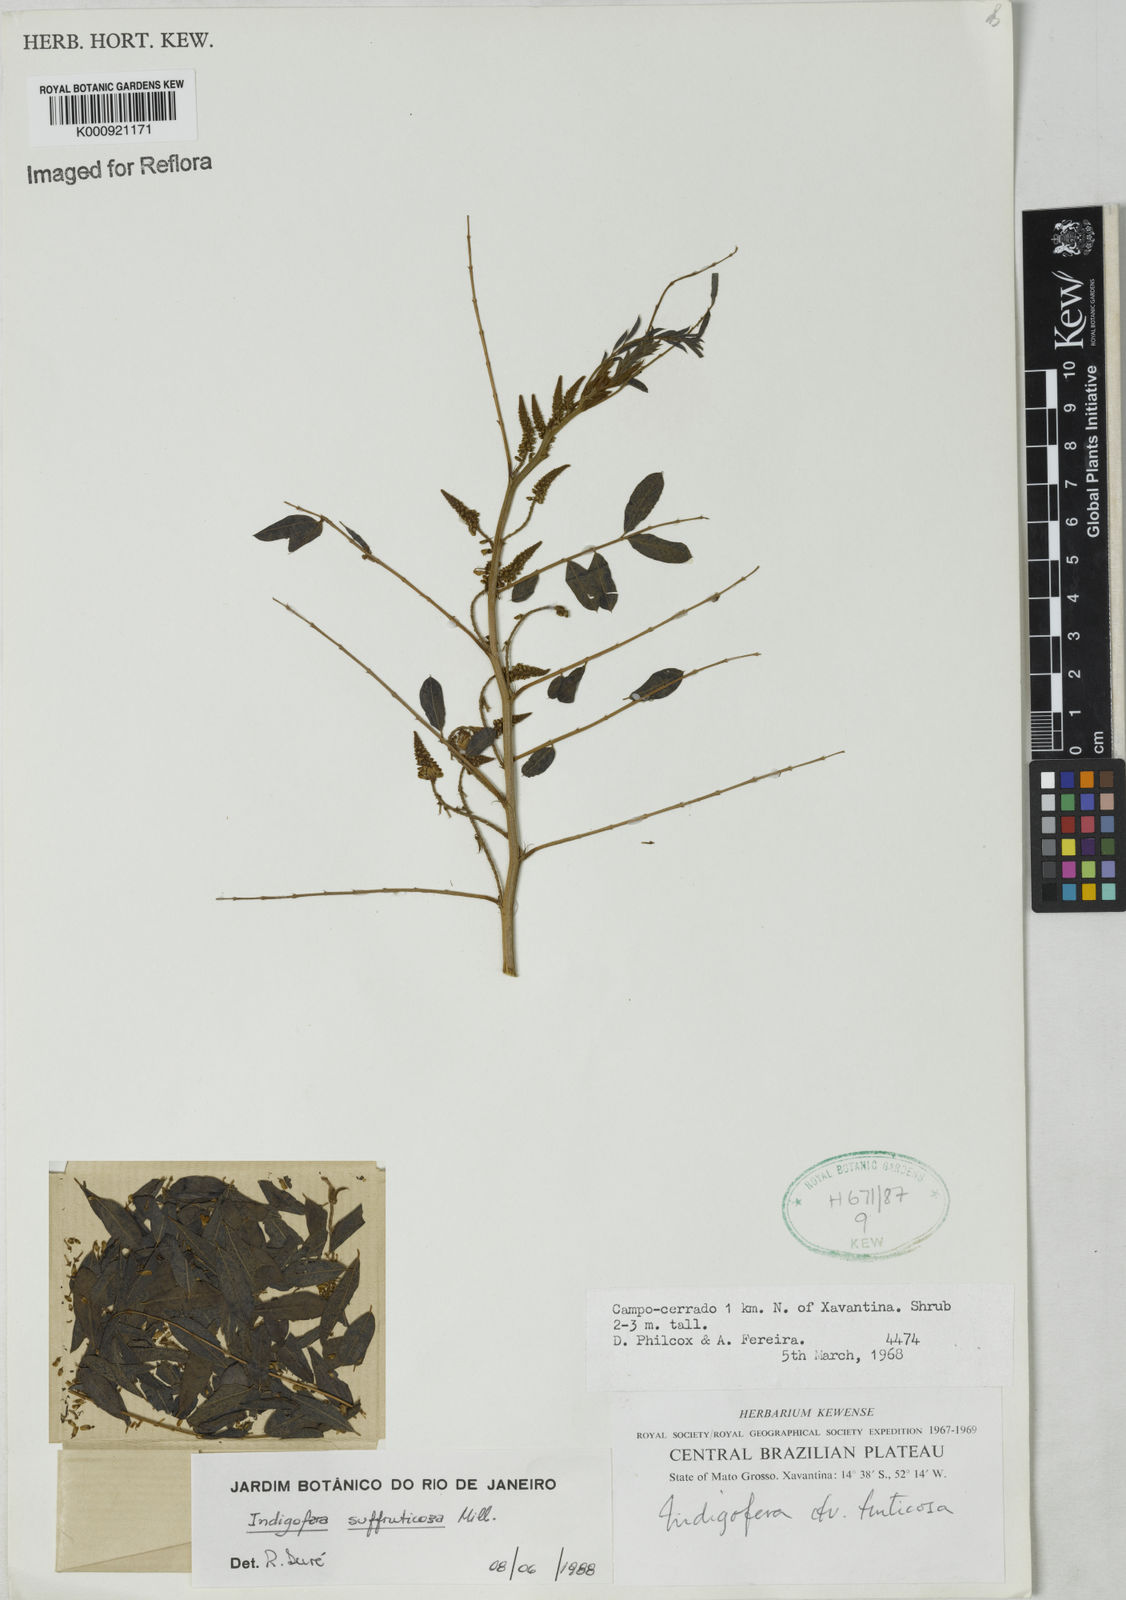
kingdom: Plantae
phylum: Tracheophyta
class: Magnoliopsida
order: Fabales
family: Fabaceae
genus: Indigofera
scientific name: Indigofera suffruticosa
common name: Anil de pasto
